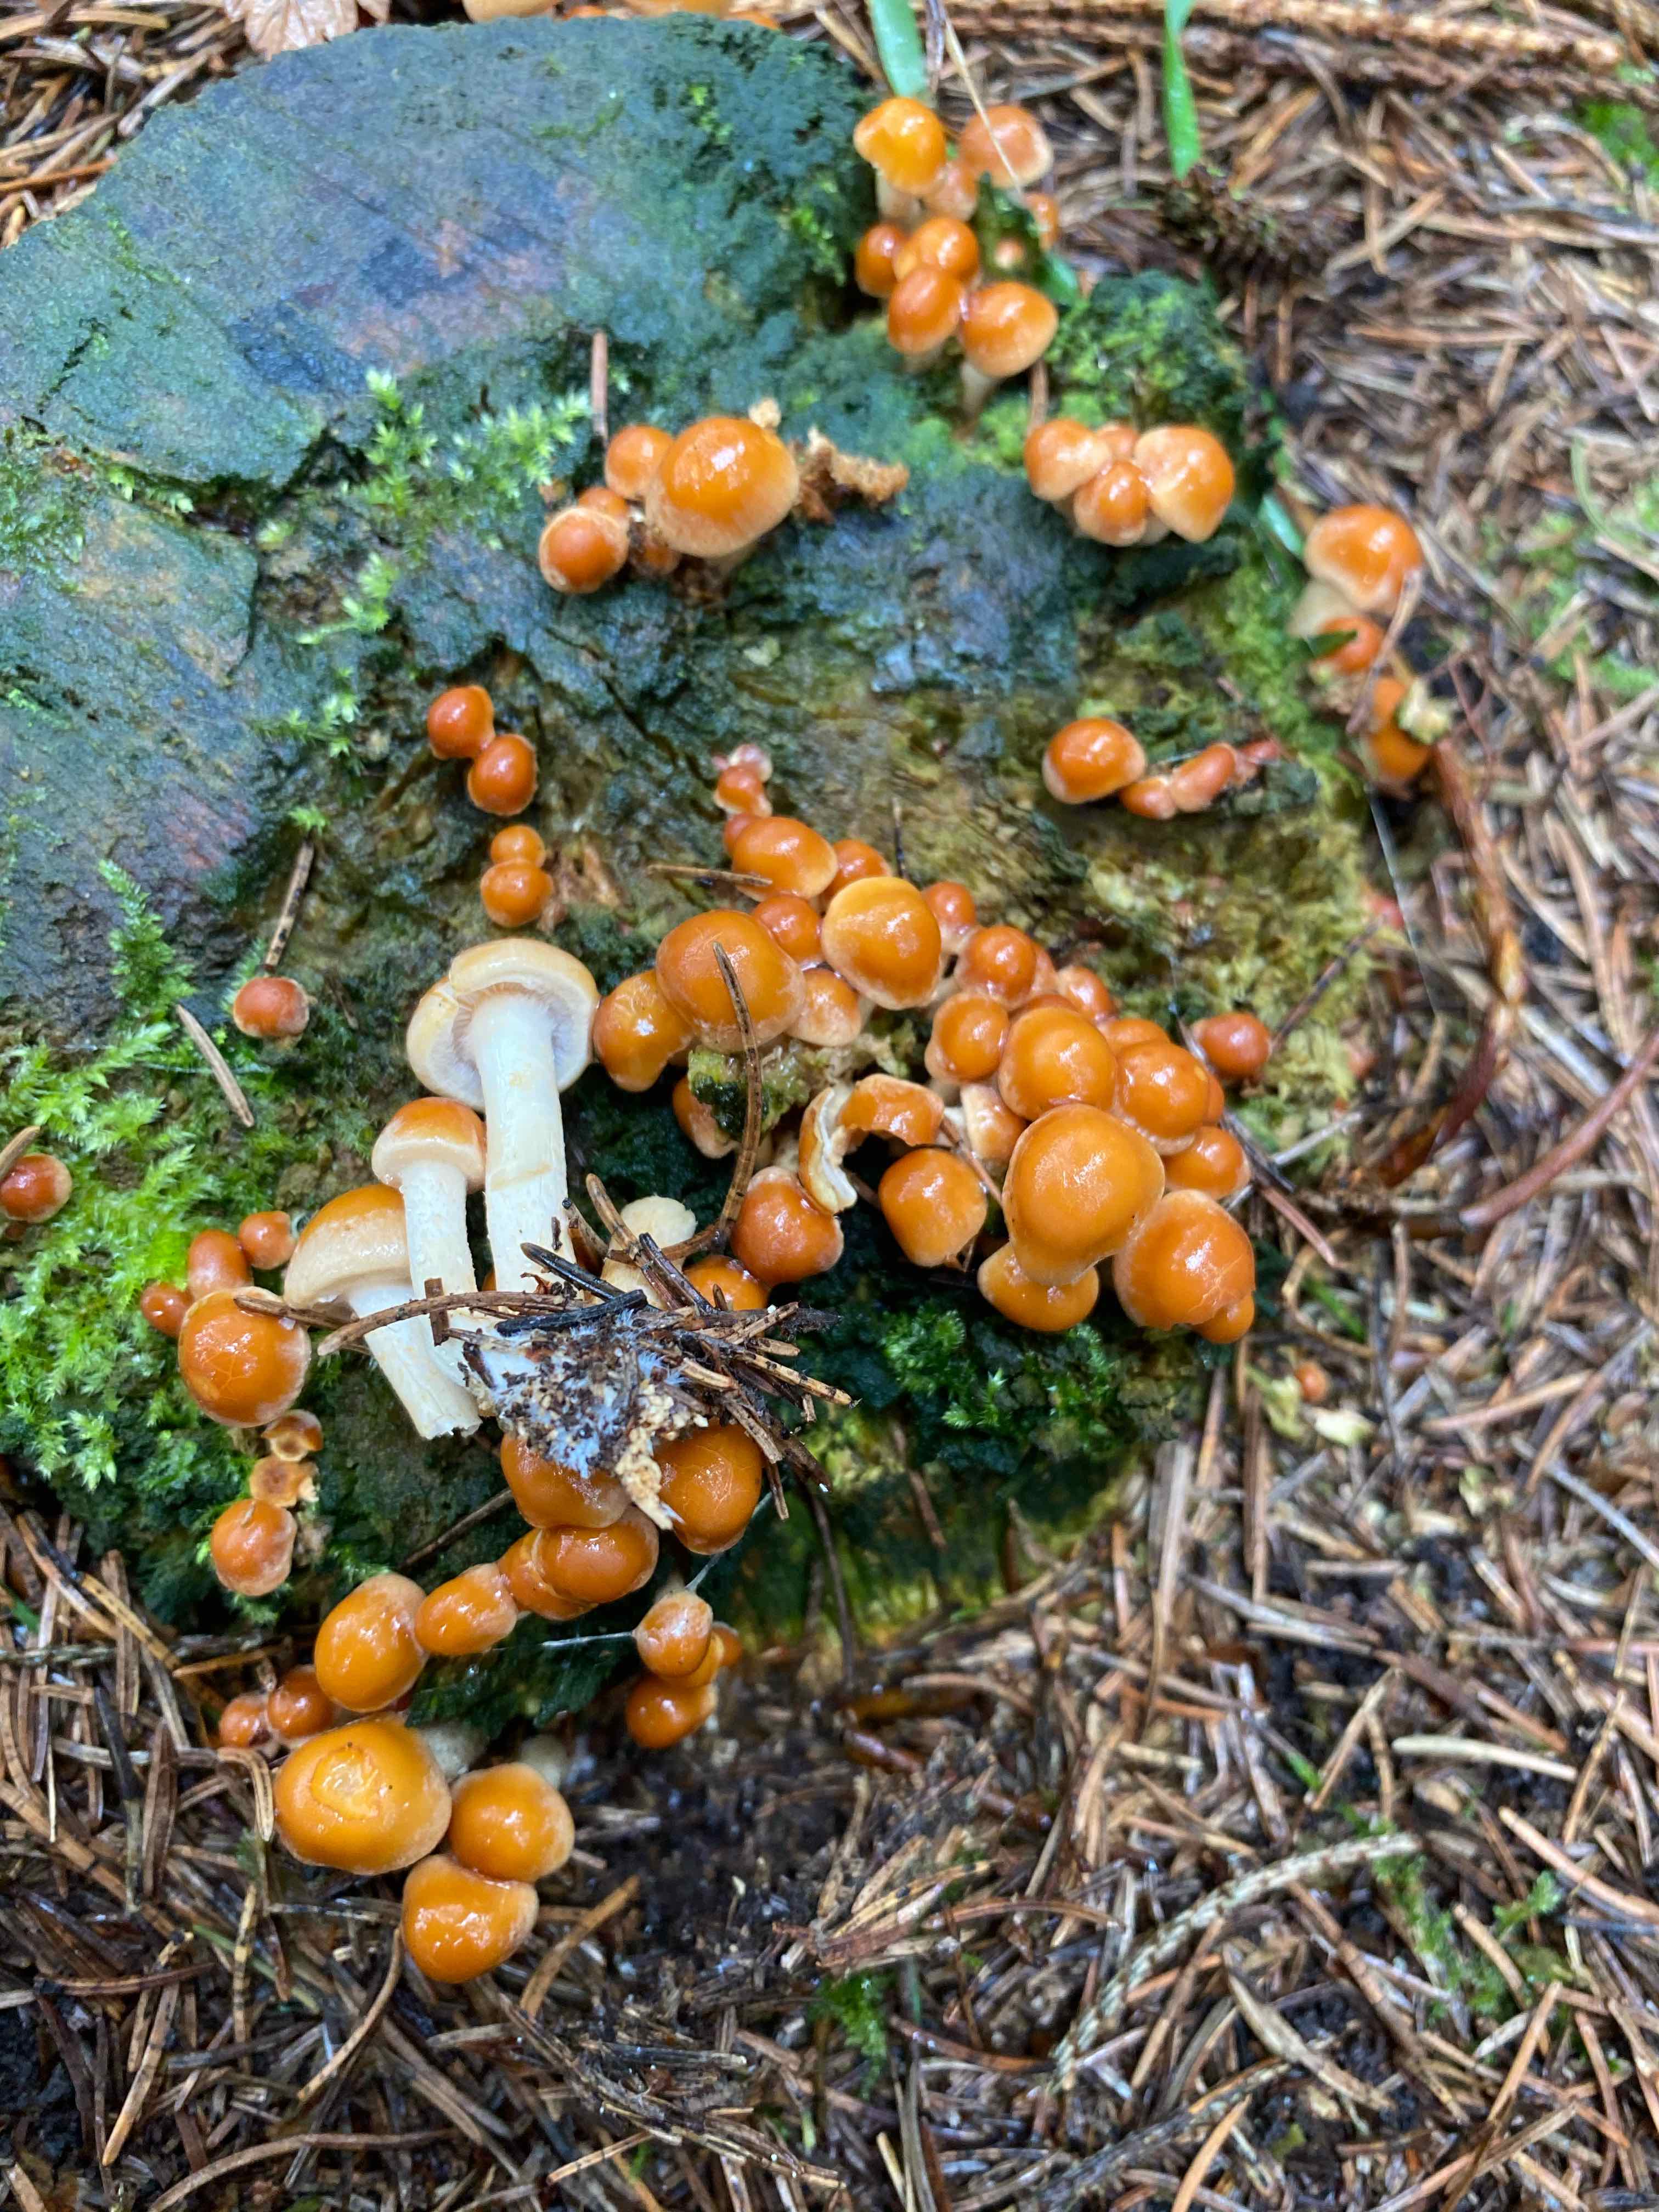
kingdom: Fungi
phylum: Basidiomycota
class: Agaricomycetes
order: Agaricales
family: Strophariaceae
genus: Hypholoma
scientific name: Hypholoma capnoides
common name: gran-svovlhat
